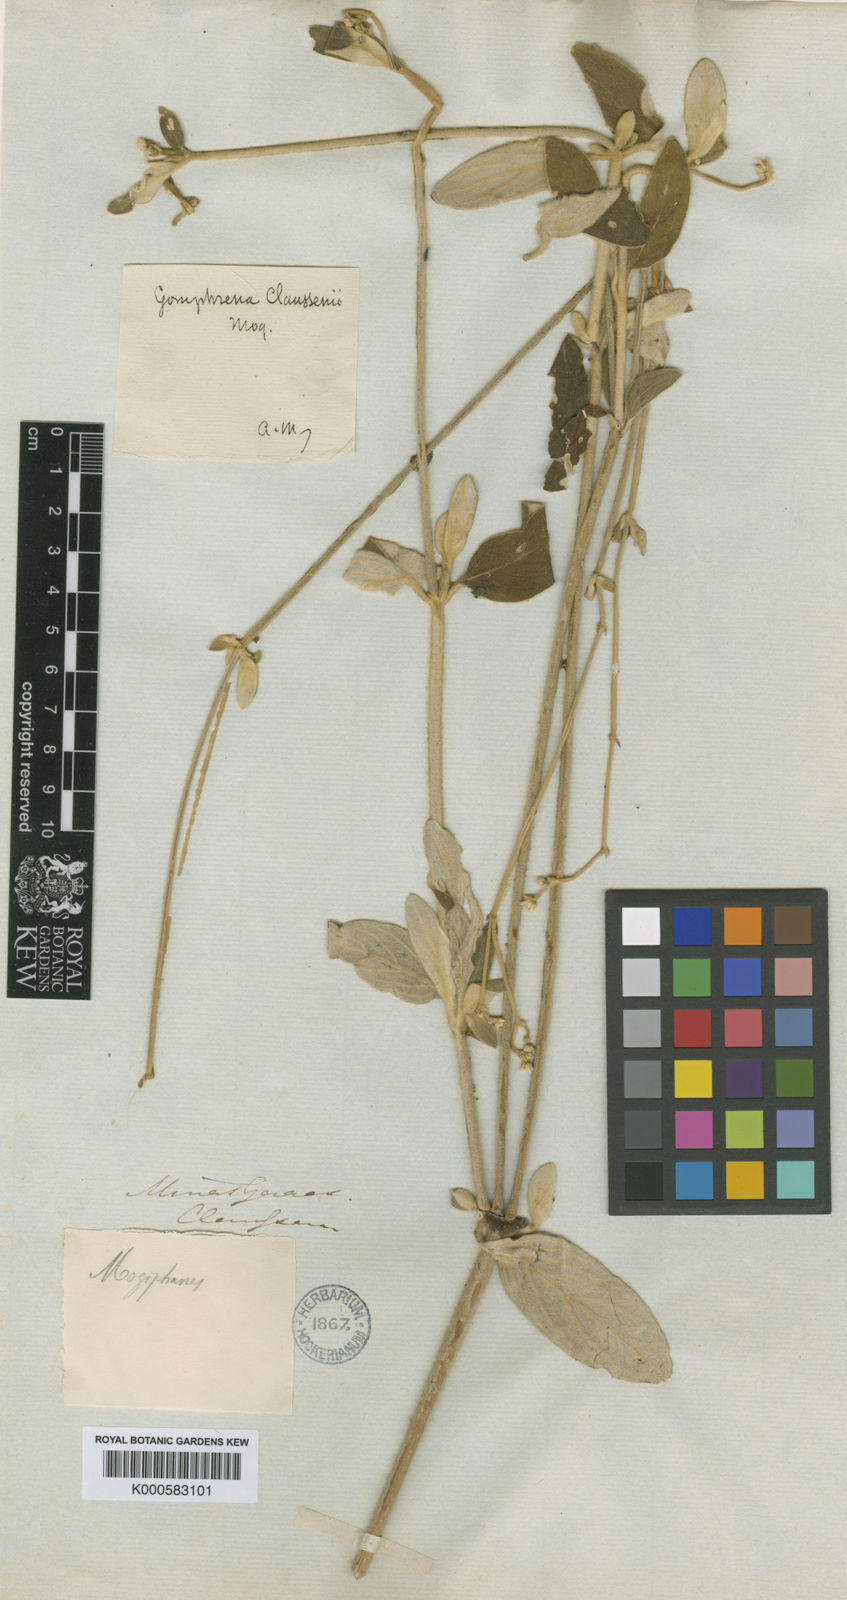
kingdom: Plantae
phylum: Tracheophyta
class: Magnoliopsida
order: Caryophyllales
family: Amaranthaceae
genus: Gomphrena
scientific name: Gomphrena claussenii
